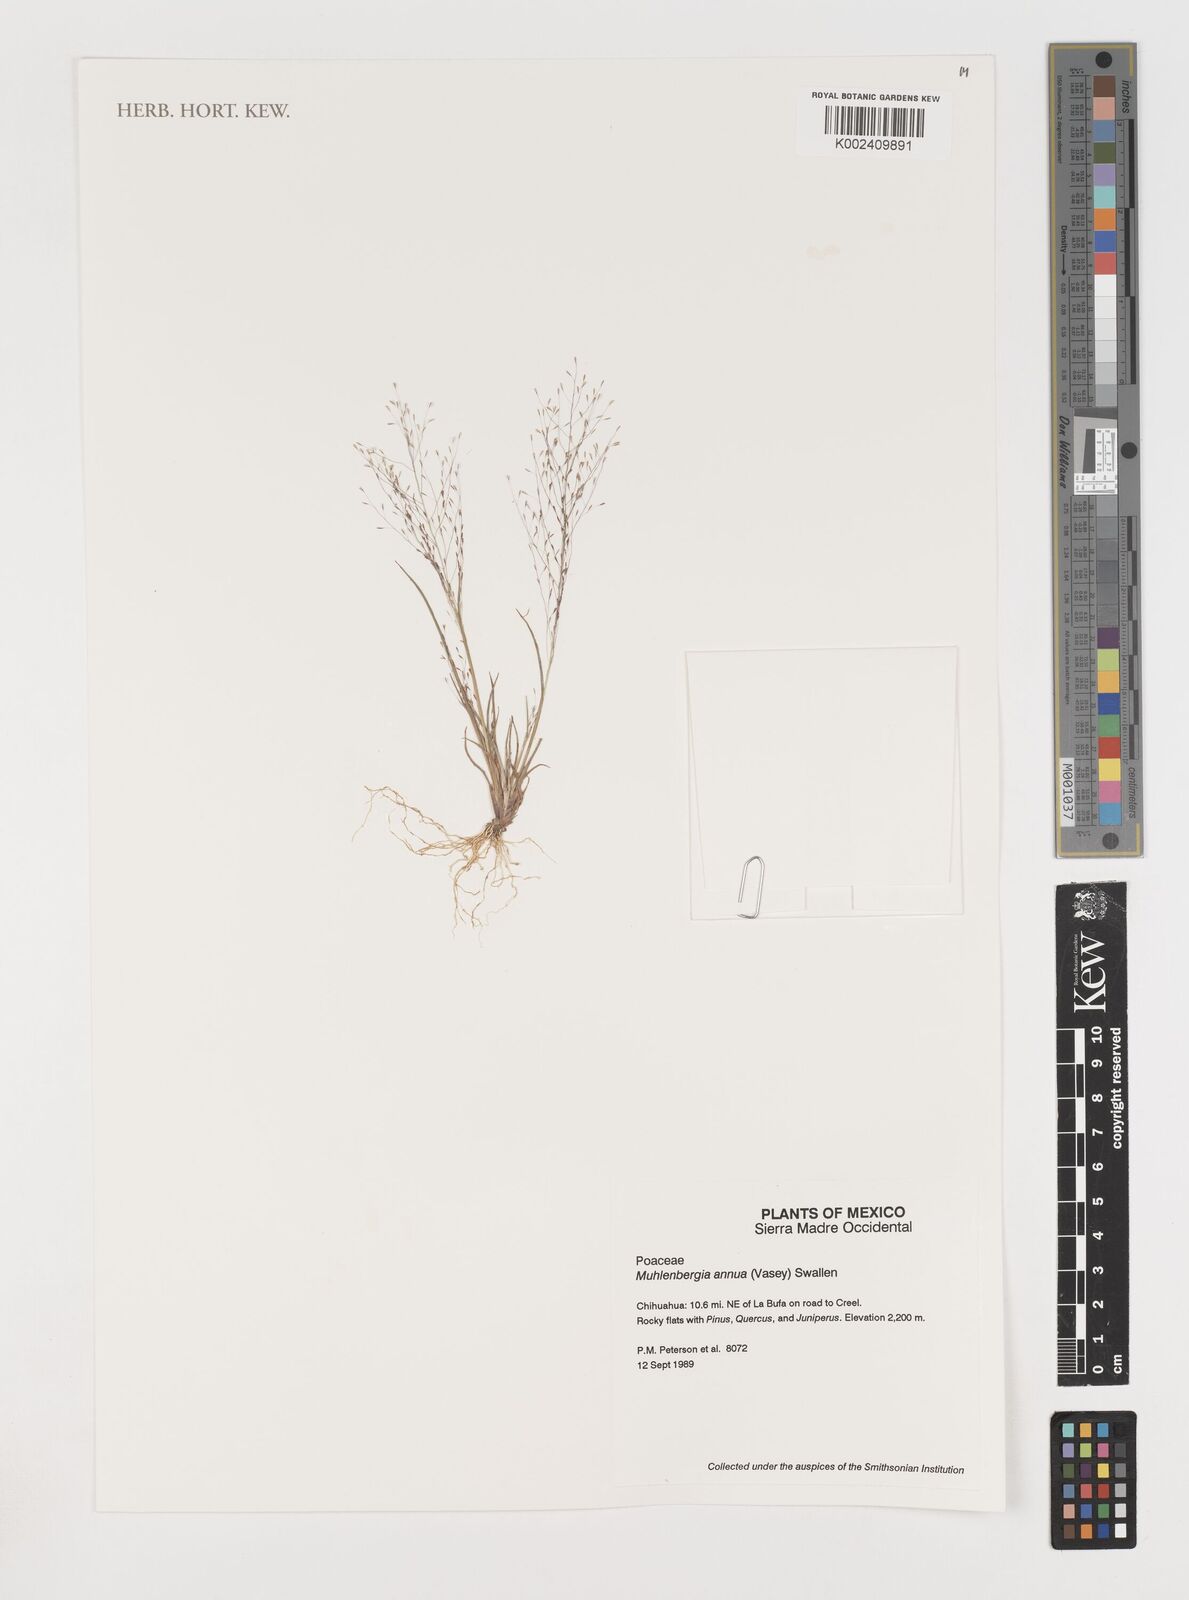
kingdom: Plantae
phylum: Tracheophyta
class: Liliopsida
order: Poales
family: Poaceae
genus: Muhlenbergia
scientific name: Muhlenbergia annua
